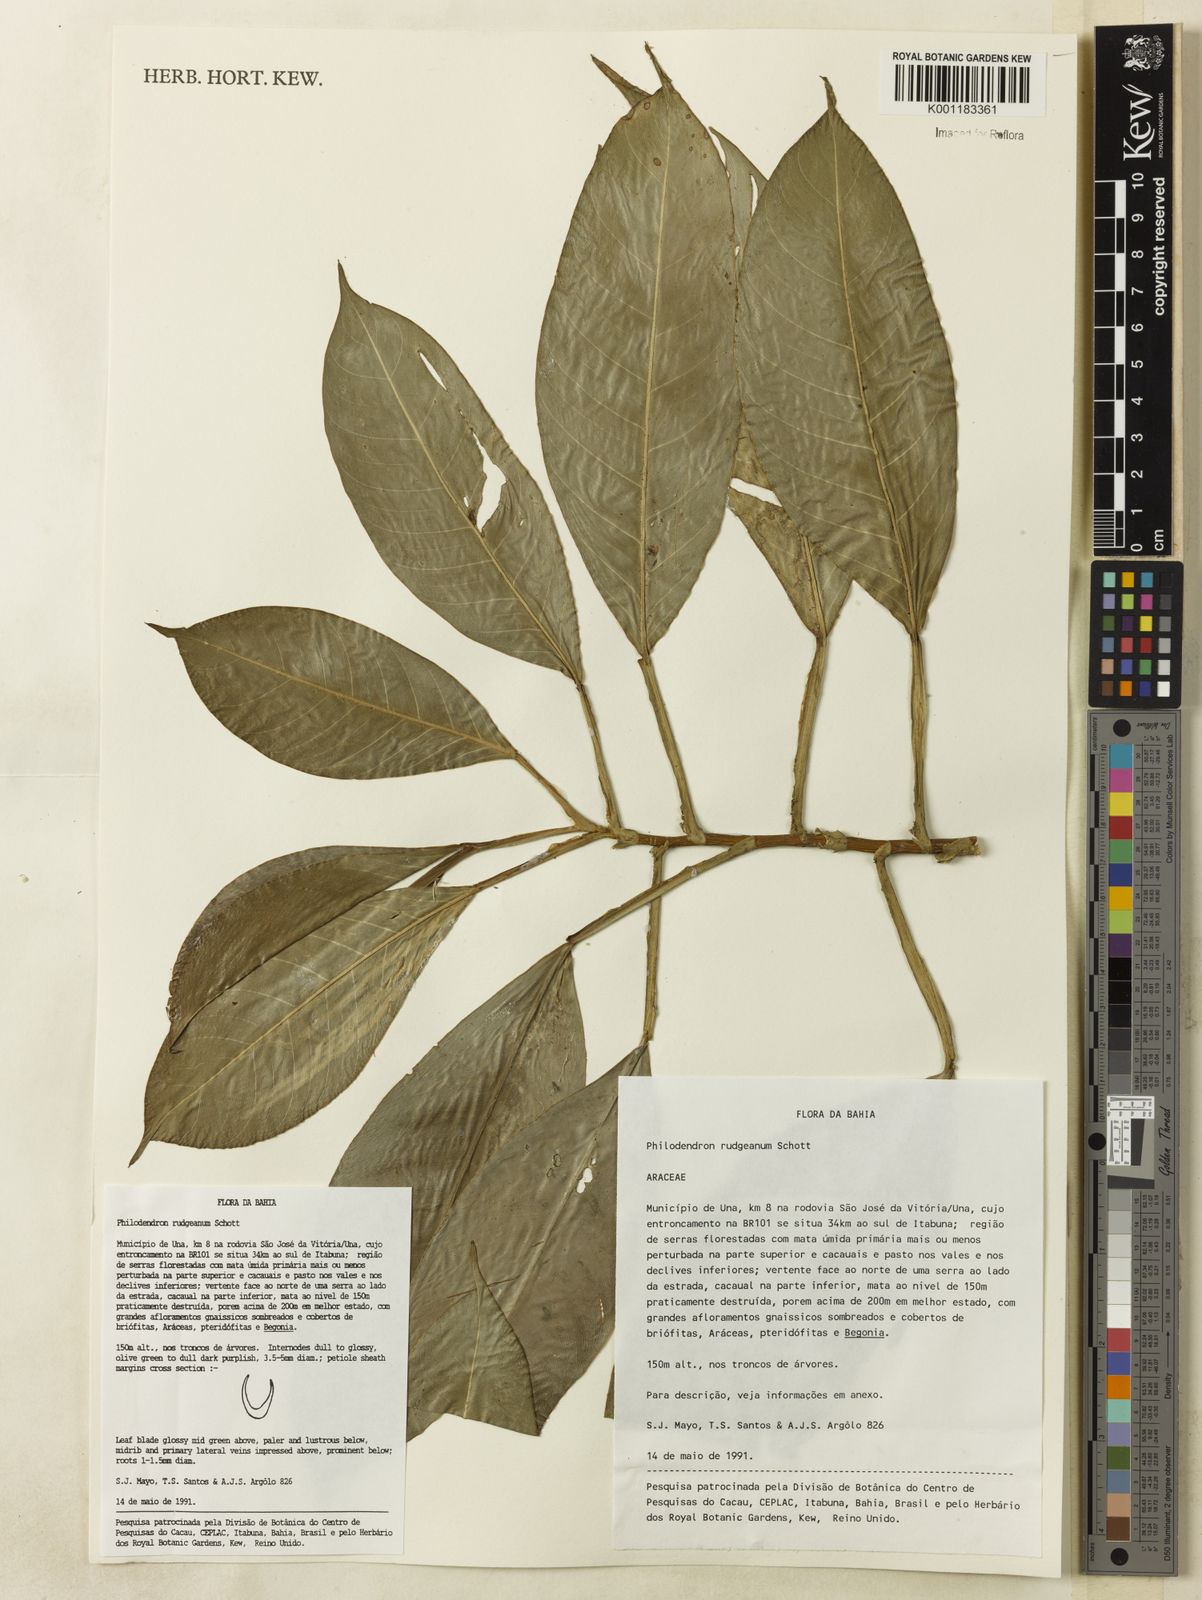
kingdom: Plantae
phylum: Tracheophyta
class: Liliopsida
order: Alismatales
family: Araceae
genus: Philodendron
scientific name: Philodendron rudgeanum
